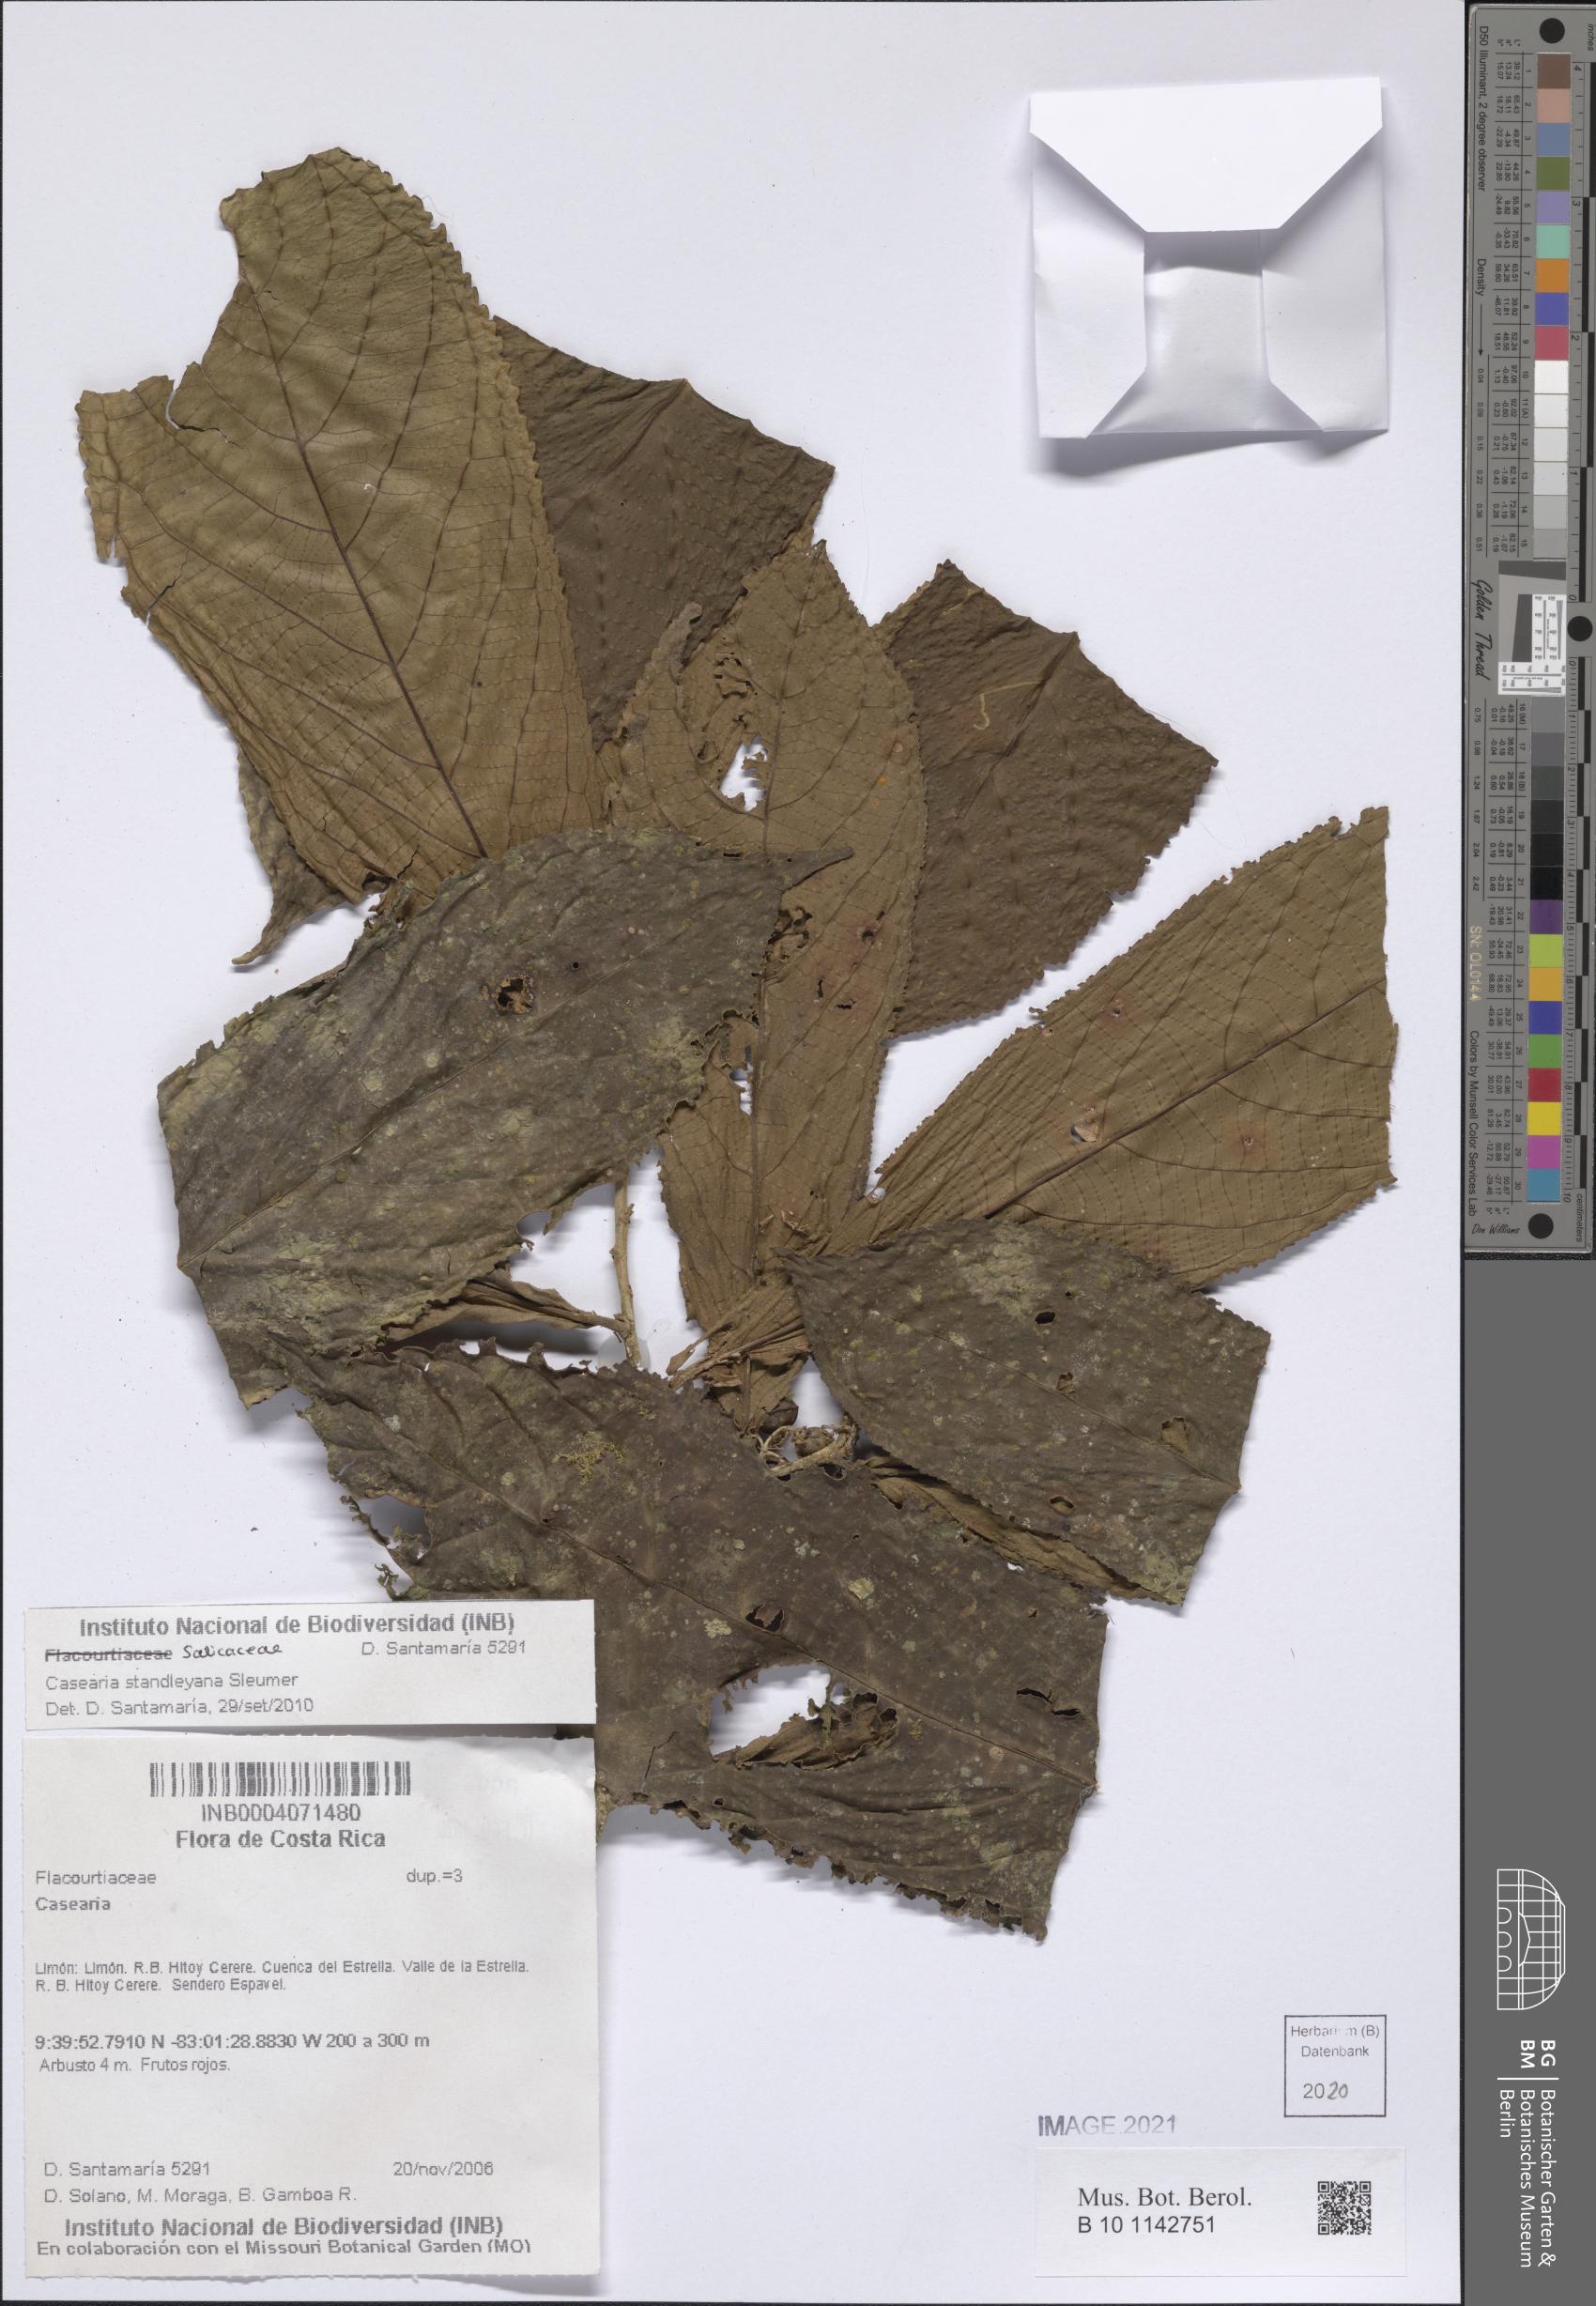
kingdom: Plantae
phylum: Tracheophyta
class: Magnoliopsida
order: Malpighiales
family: Salicaceae
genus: Casearia
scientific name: Casearia
